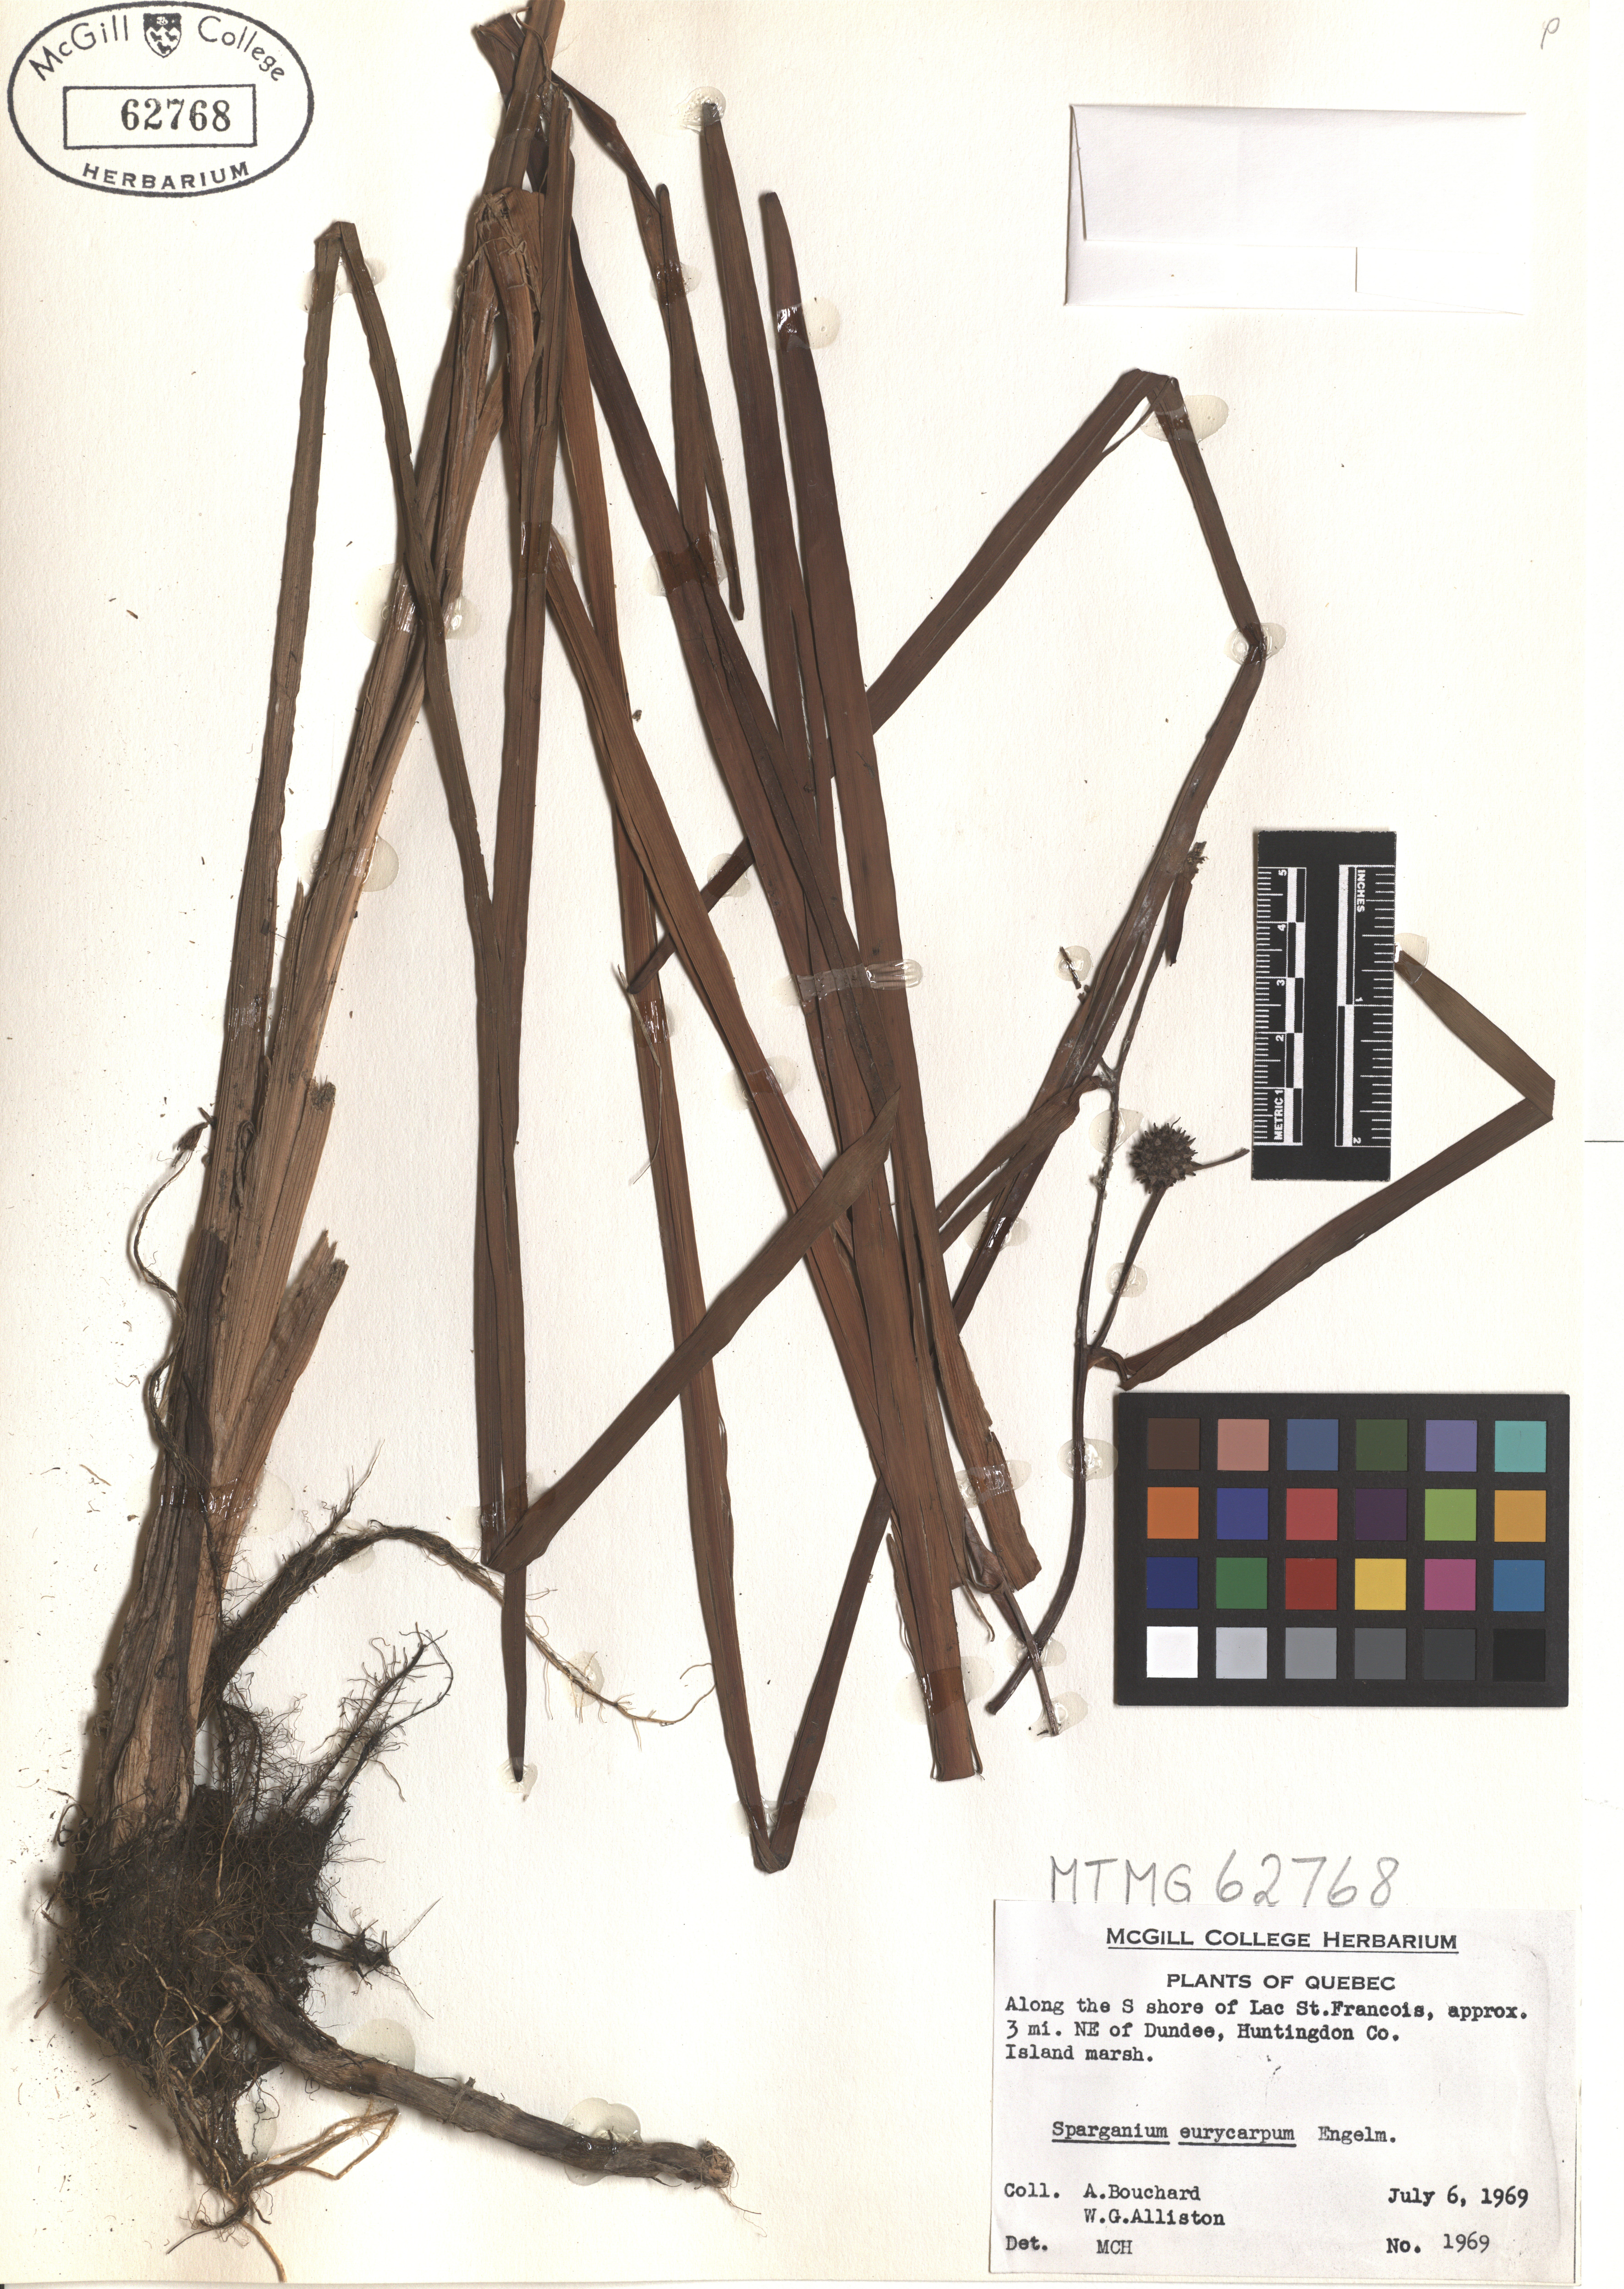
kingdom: Plantae
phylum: Tracheophyta
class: Liliopsida
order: Poales
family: Typhaceae
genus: Sparganium
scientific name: Sparganium eurycarpum
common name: Broad-fruited burreed
